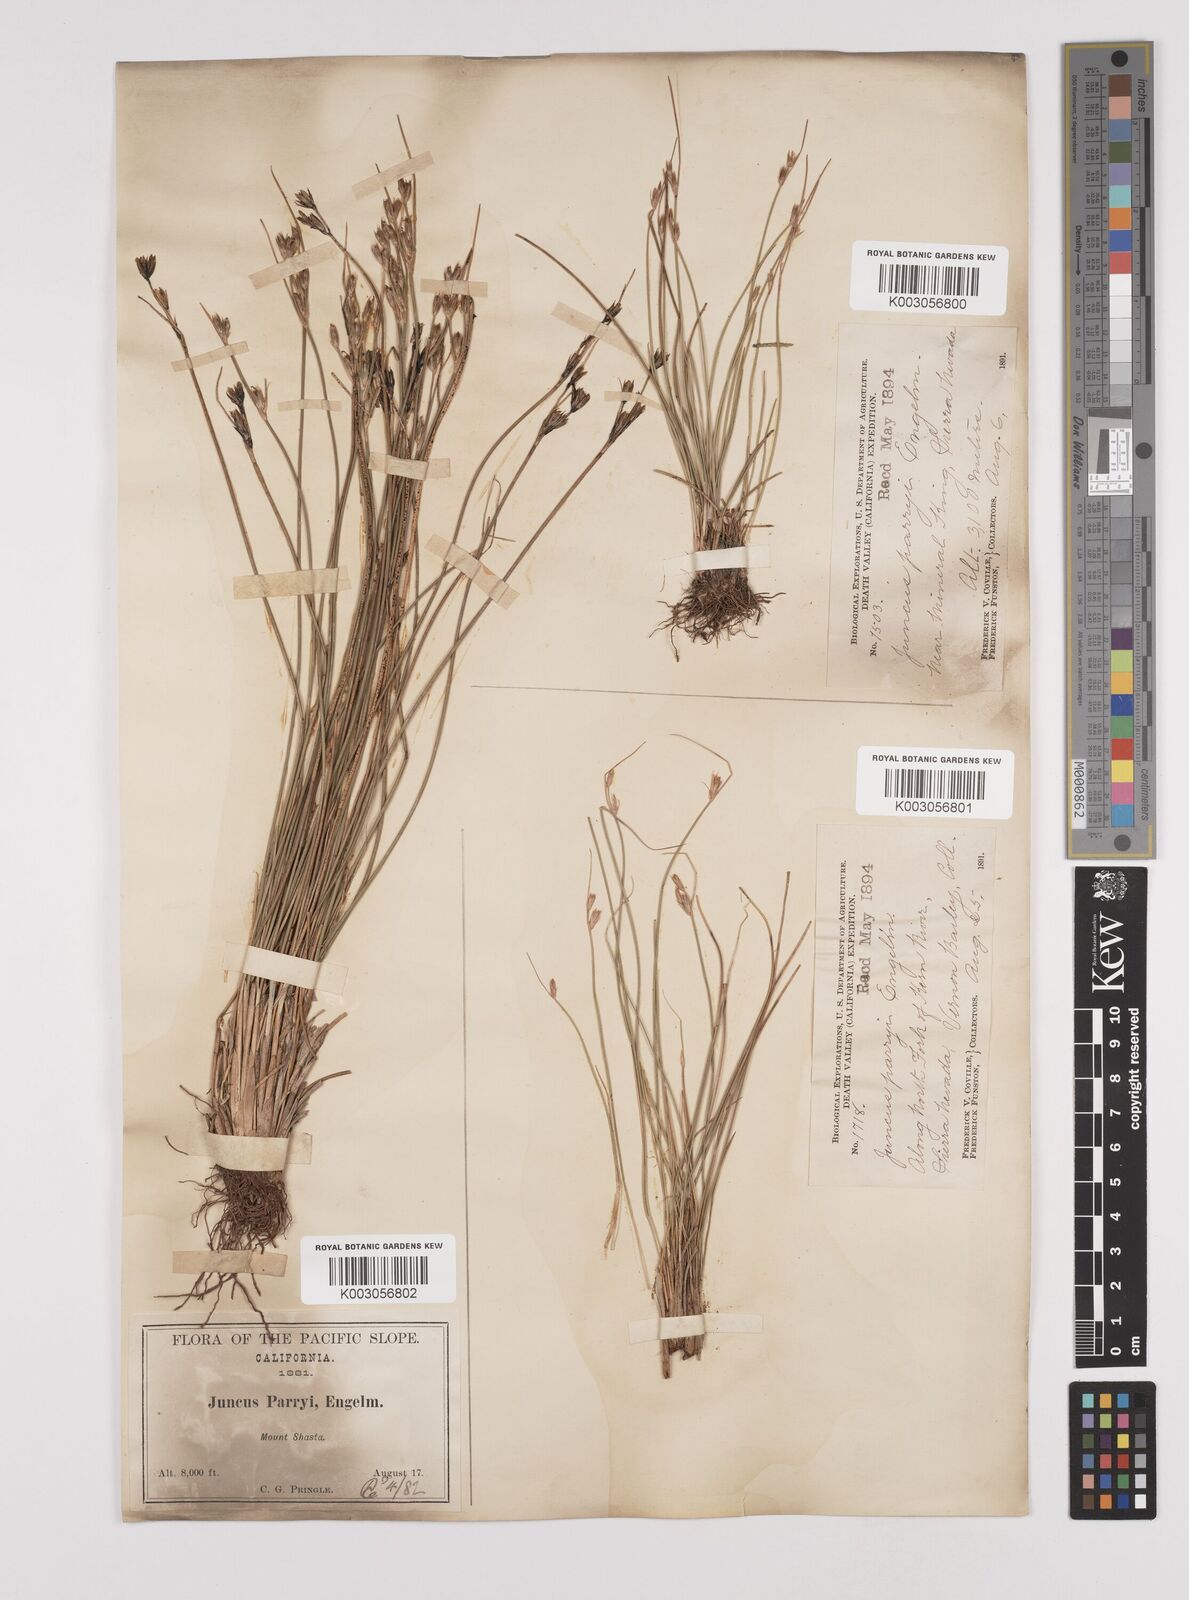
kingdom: Plantae
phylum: Tracheophyta
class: Liliopsida
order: Poales
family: Juncaceae
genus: Juncus
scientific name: Juncus parryi
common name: Parry's rush
